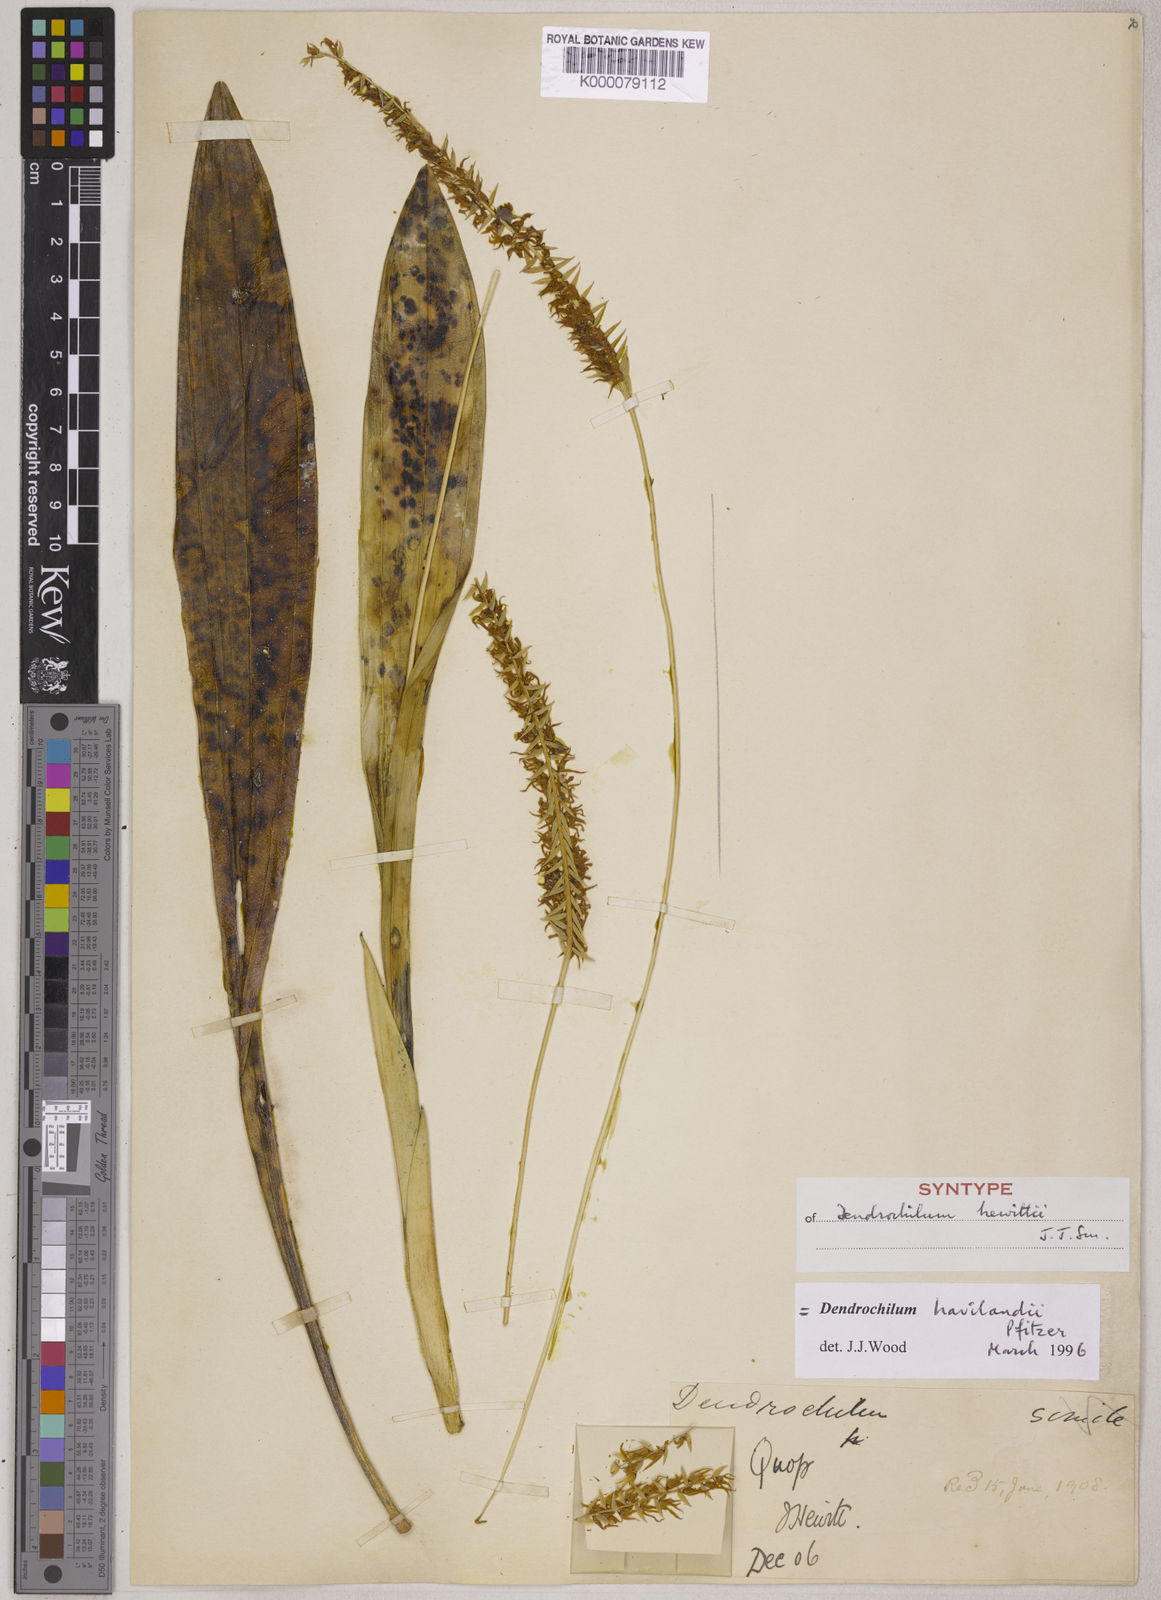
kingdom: Plantae
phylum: Tracheophyta
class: Liliopsida
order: Asparagales
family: Orchidaceae
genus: Coelogyne
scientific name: Coelogyne havilandii
